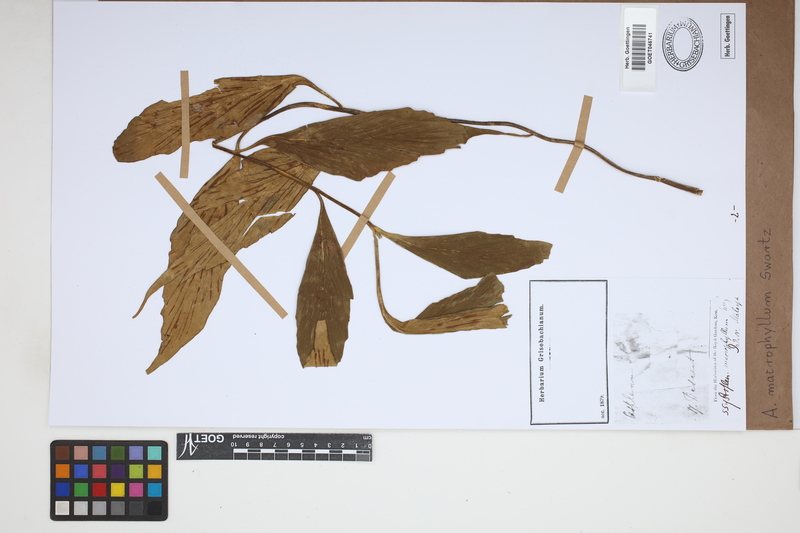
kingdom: Plantae
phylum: Tracheophyta
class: Polypodiopsida
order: Polypodiales
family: Aspleniaceae
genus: Asplenium
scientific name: Asplenium macrophyllum
